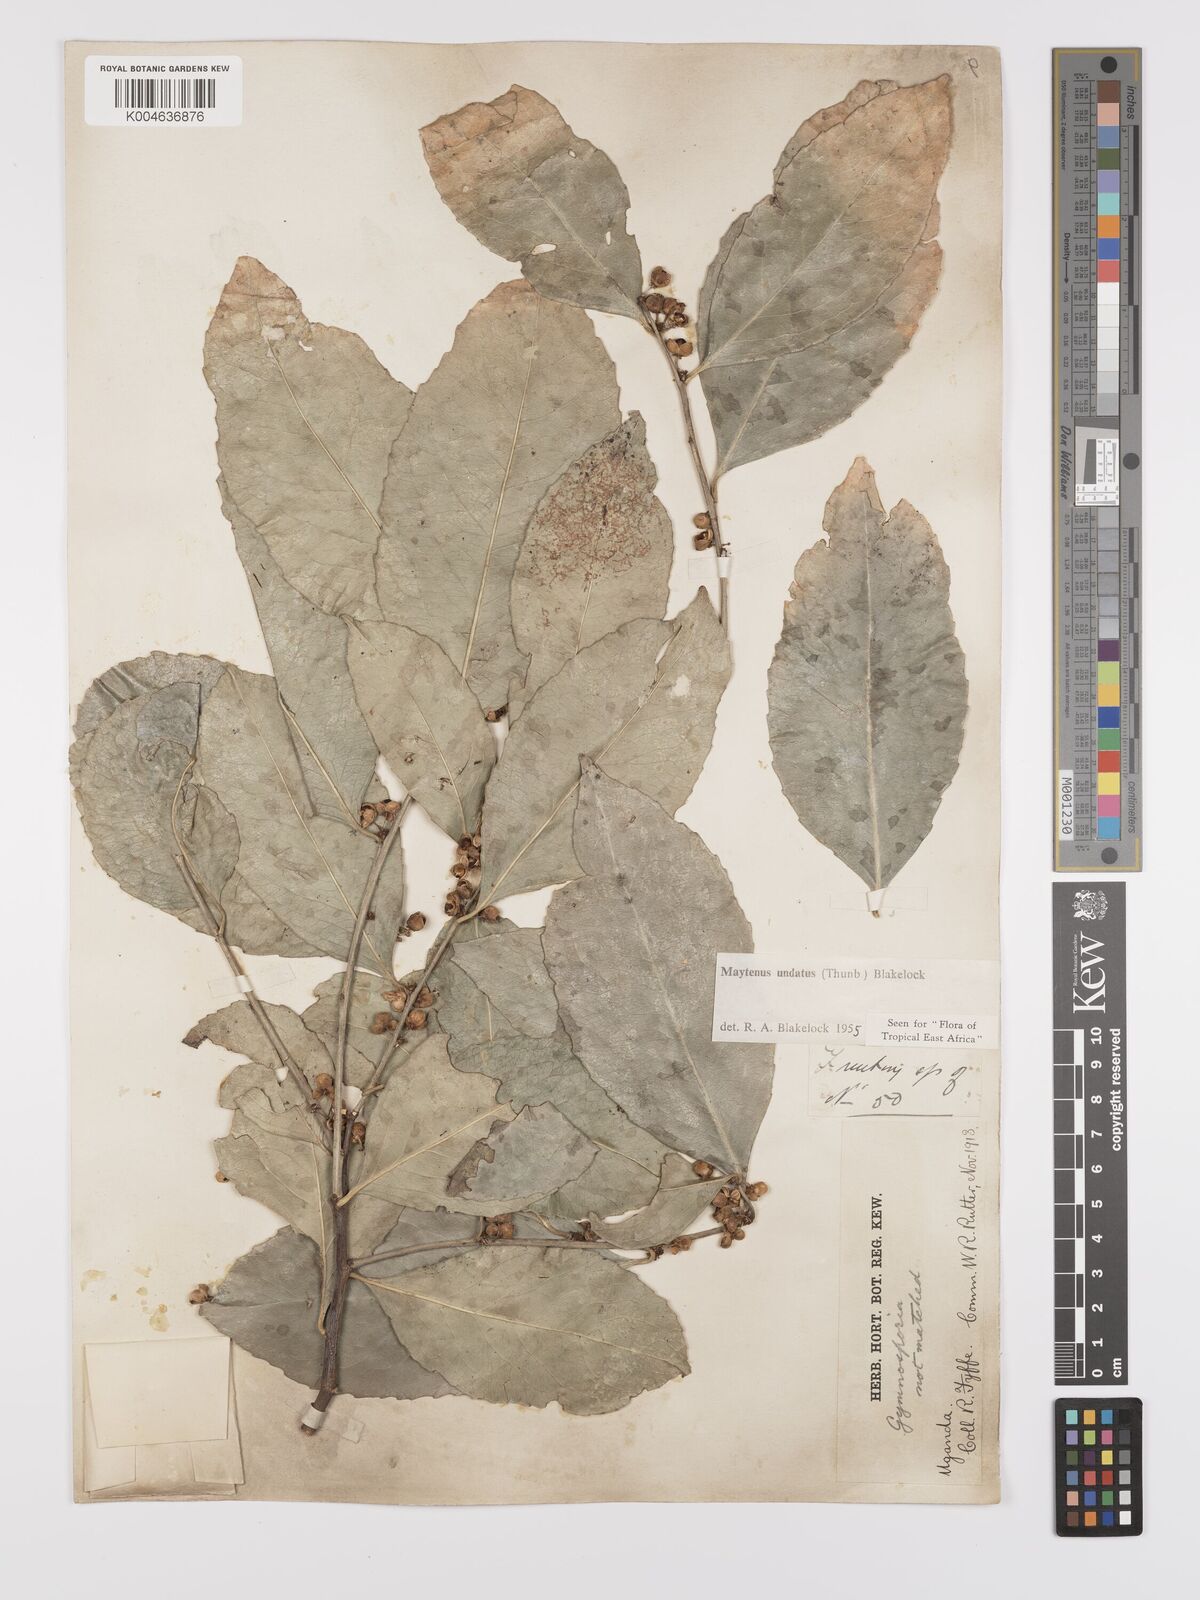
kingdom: Plantae
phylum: Tracheophyta
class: Magnoliopsida
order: Celastrales
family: Celastraceae
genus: Gymnosporia
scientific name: Gymnosporia undata
